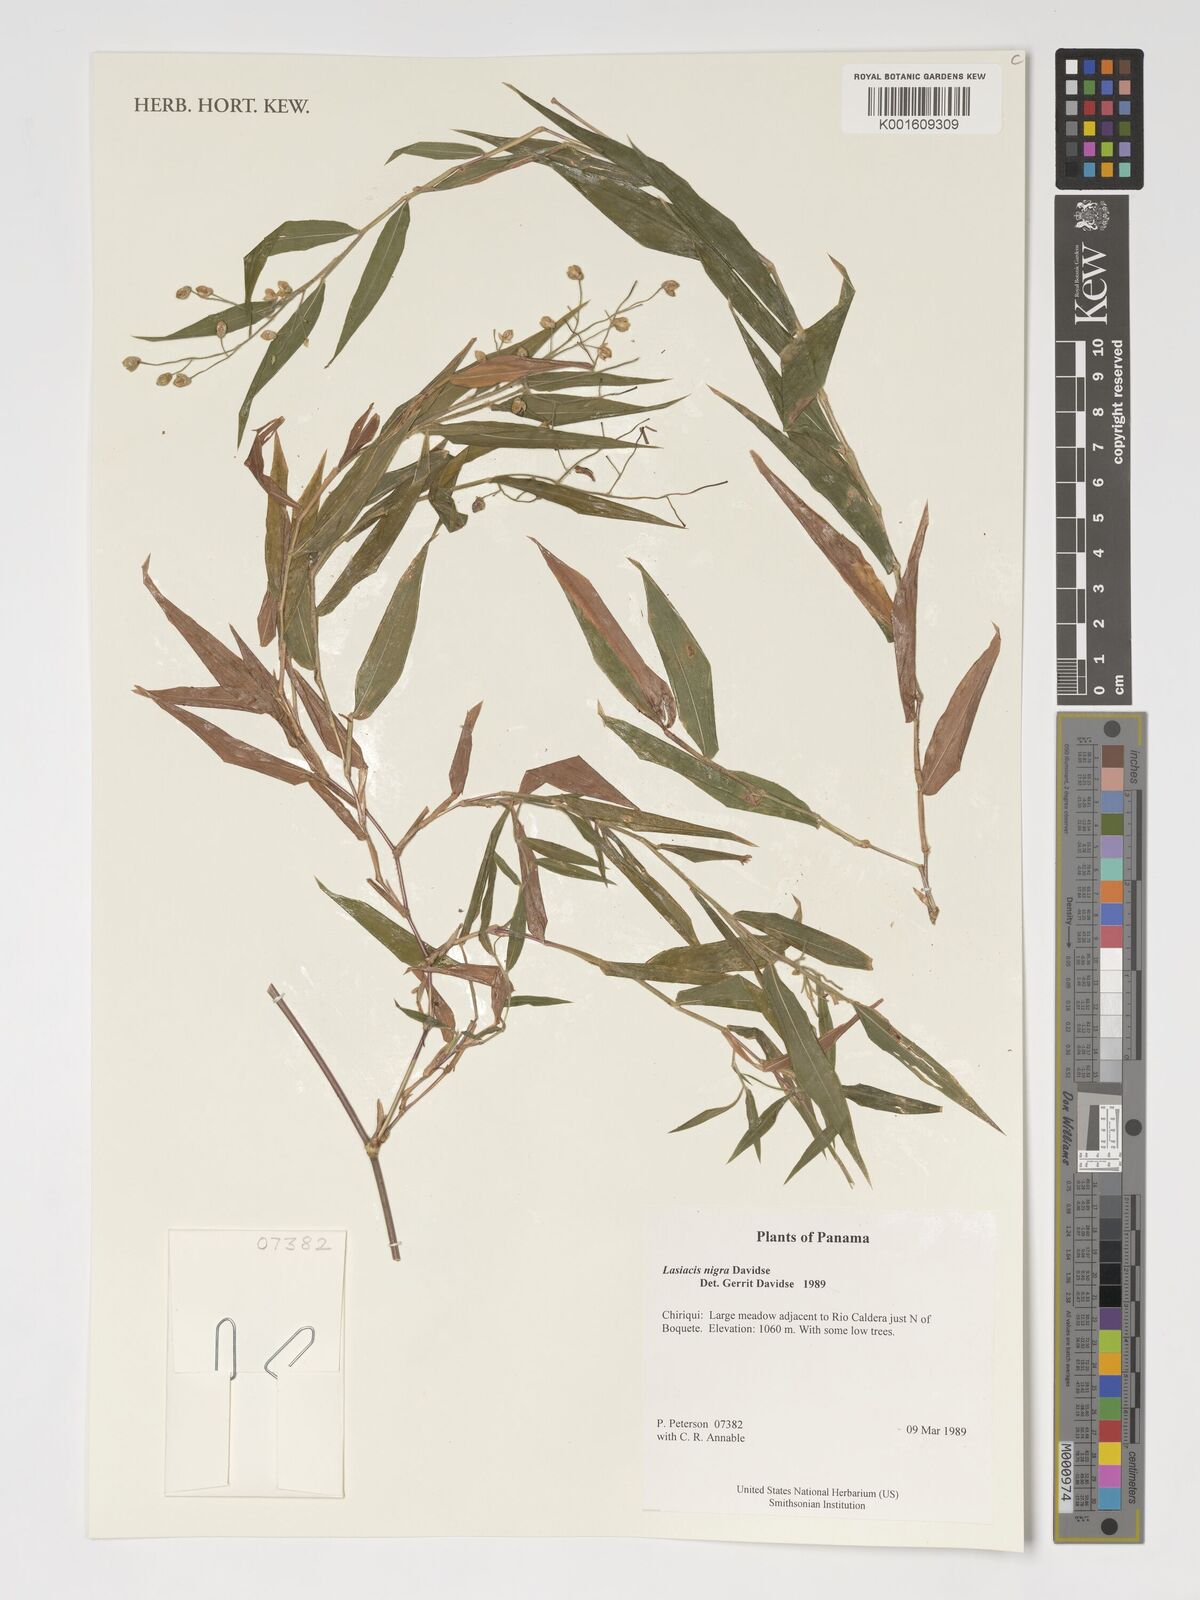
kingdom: Plantae
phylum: Tracheophyta
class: Liliopsida
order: Poales
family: Poaceae
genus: Lasiacis
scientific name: Lasiacis nigra
